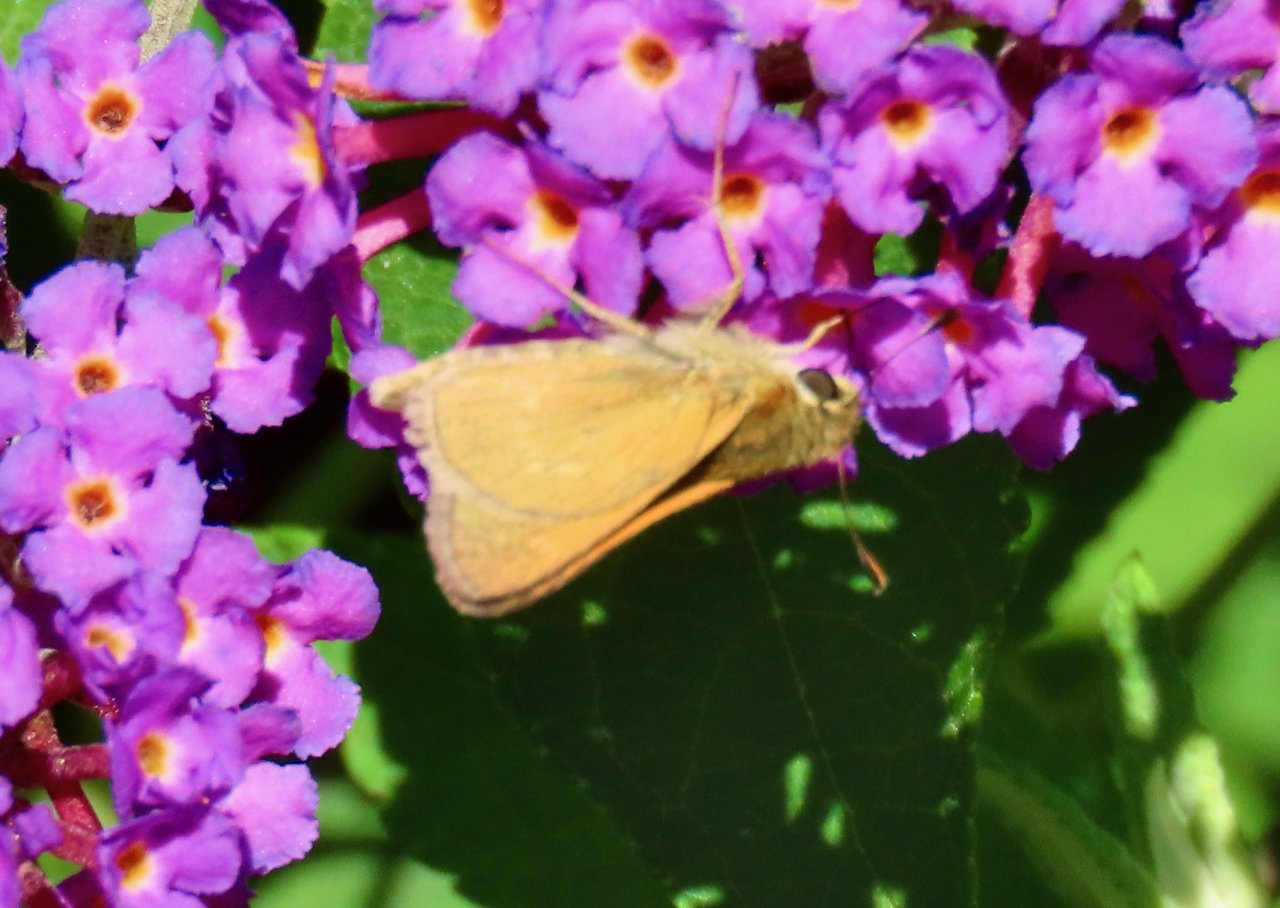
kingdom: Animalia
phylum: Arthropoda
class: Insecta
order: Lepidoptera
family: Hesperiidae
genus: Polites
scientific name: Polites themistocles
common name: Tawny-edged Skipper
